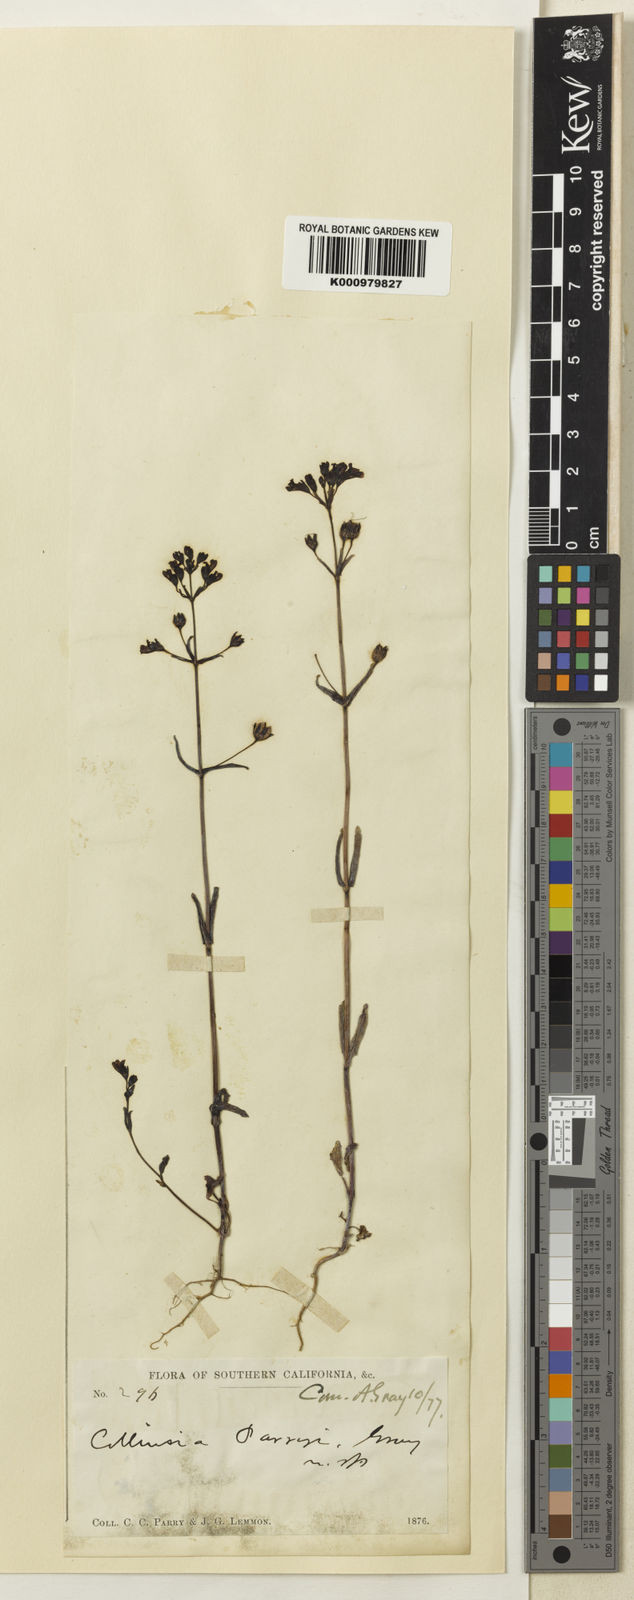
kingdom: Plantae
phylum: Tracheophyta
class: Magnoliopsida
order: Lamiales
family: Plantaginaceae
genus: Collinsia
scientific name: Collinsia parryi
